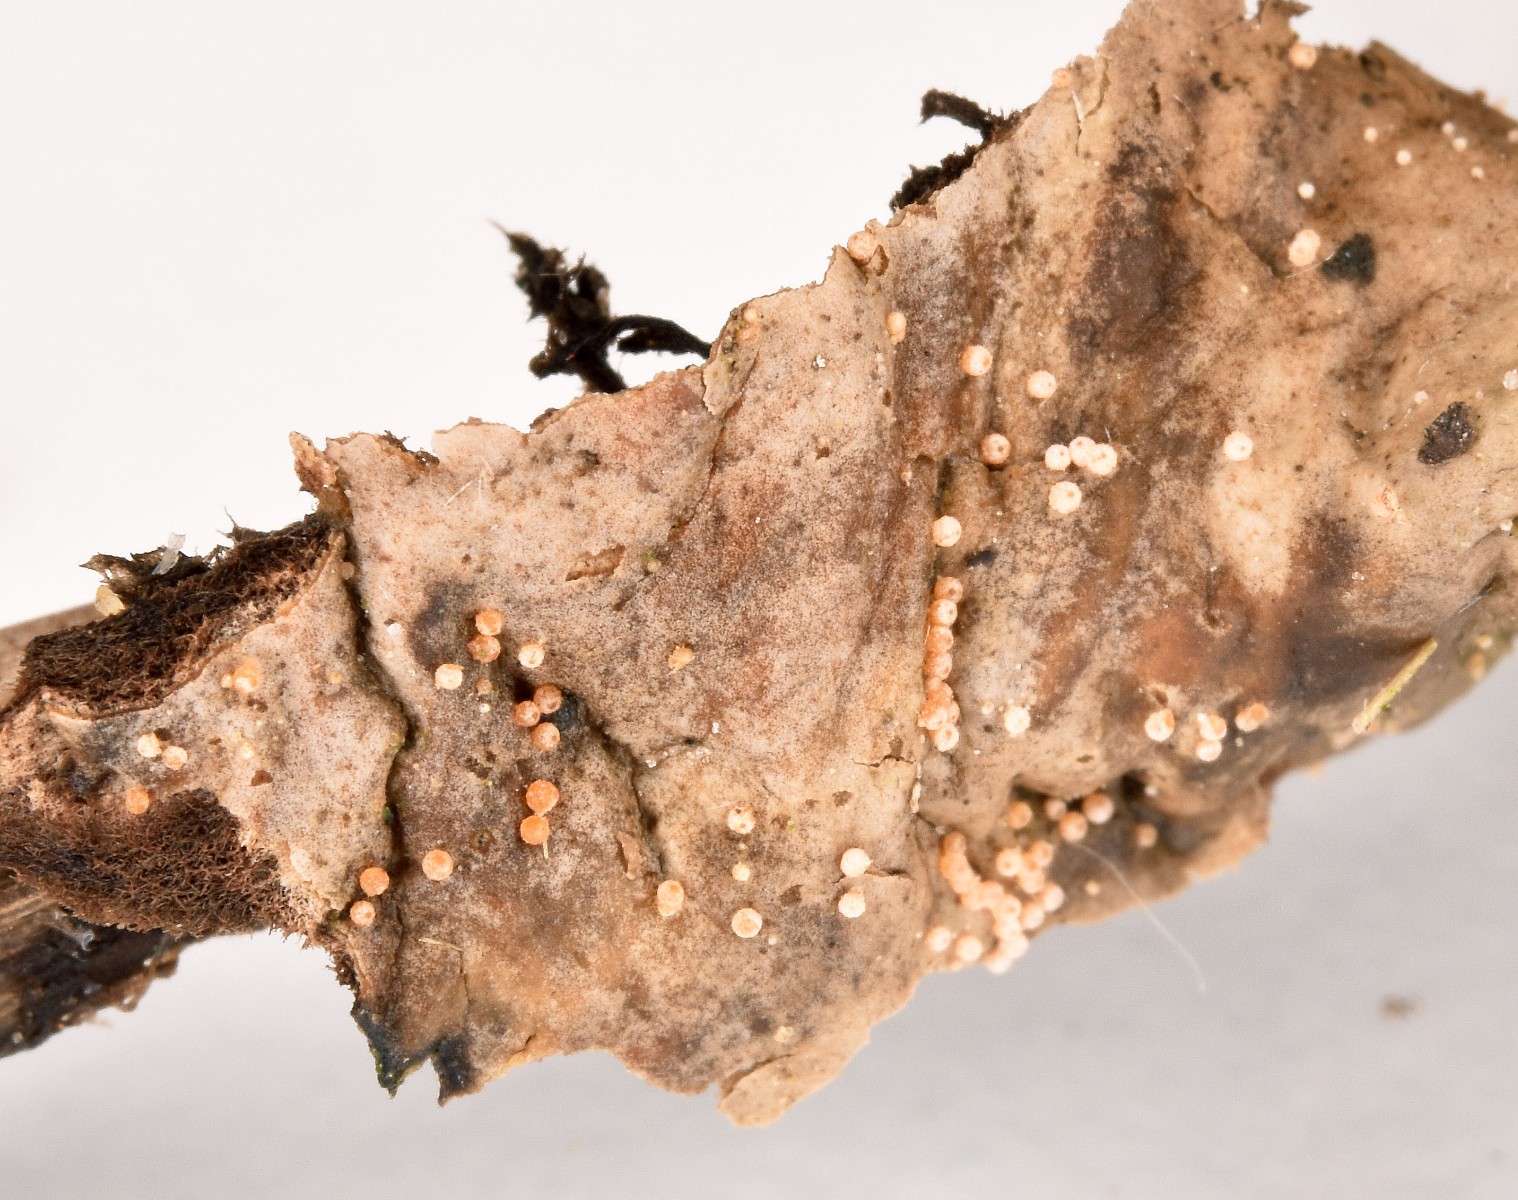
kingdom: Fungi
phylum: Ascomycota
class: Sordariomycetes
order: Hypocreales
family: Bionectriaceae
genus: Nectriopsis
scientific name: Nectriopsis lecanodes
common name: skjoldlav-gyldenkerne
